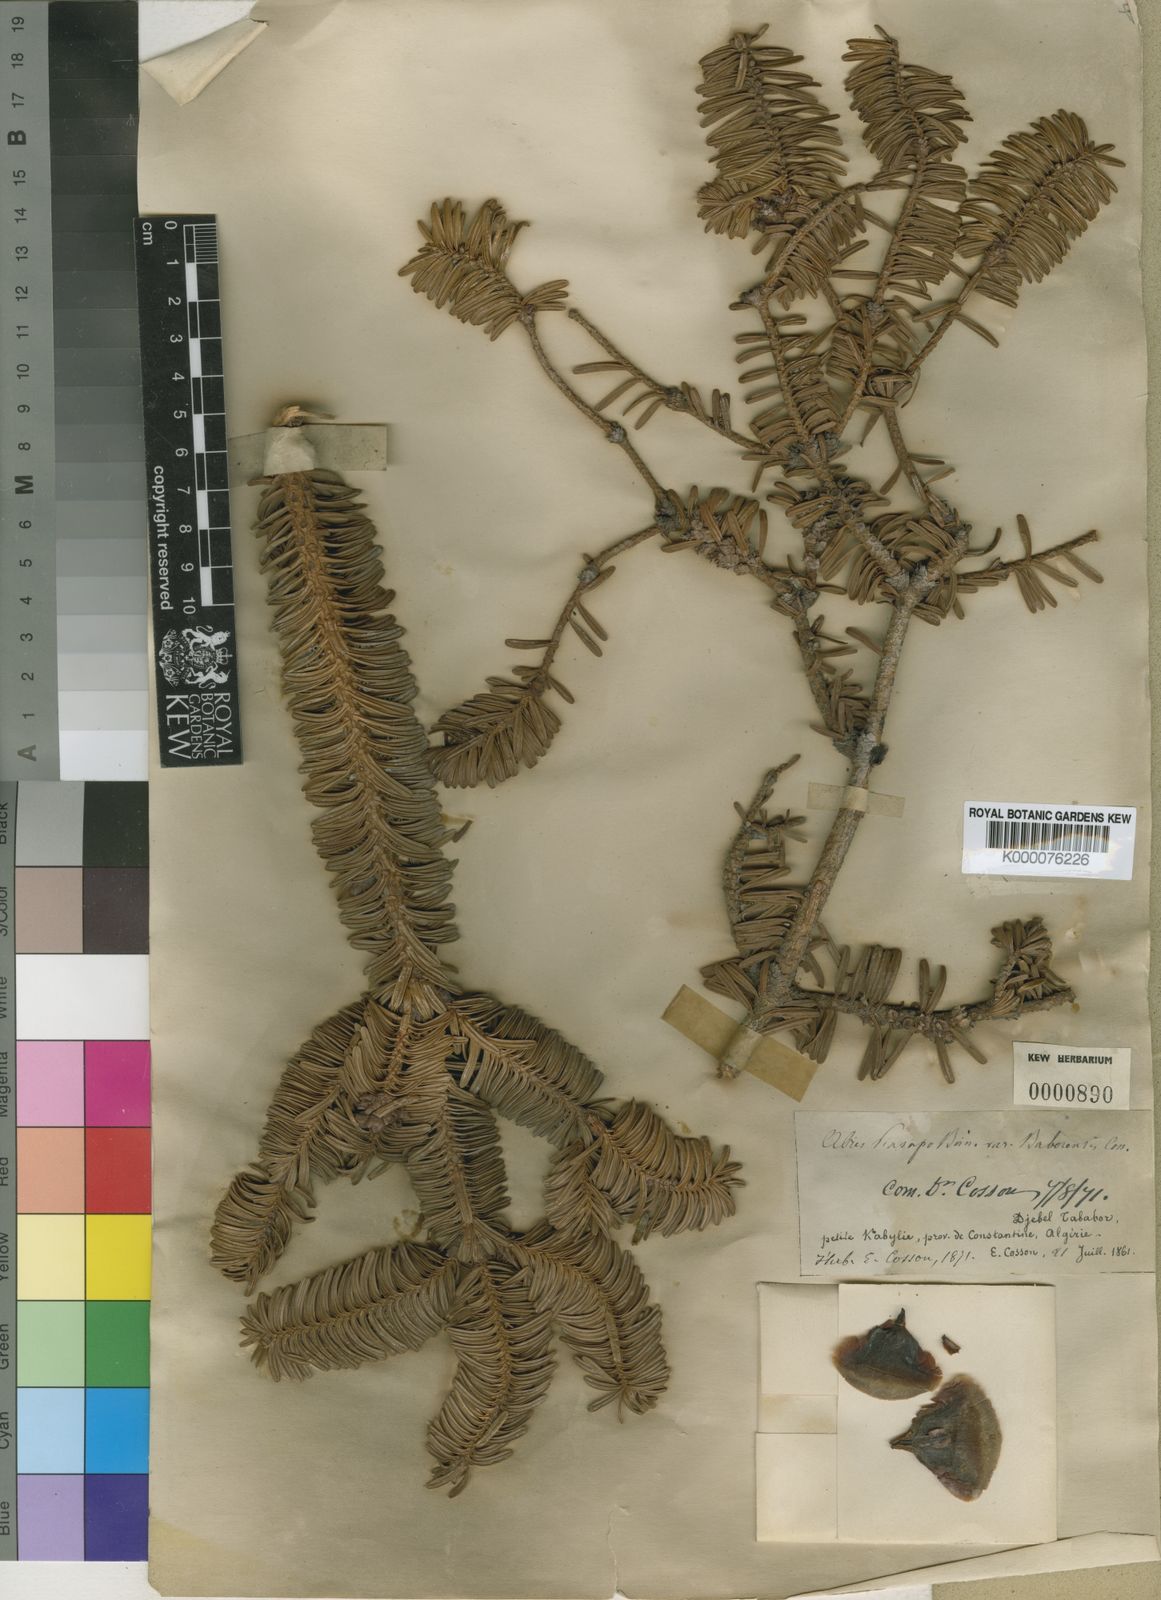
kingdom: Plantae
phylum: Tracheophyta
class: Pinopsida
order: Pinales
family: Pinaceae
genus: Abies
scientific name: Abies
